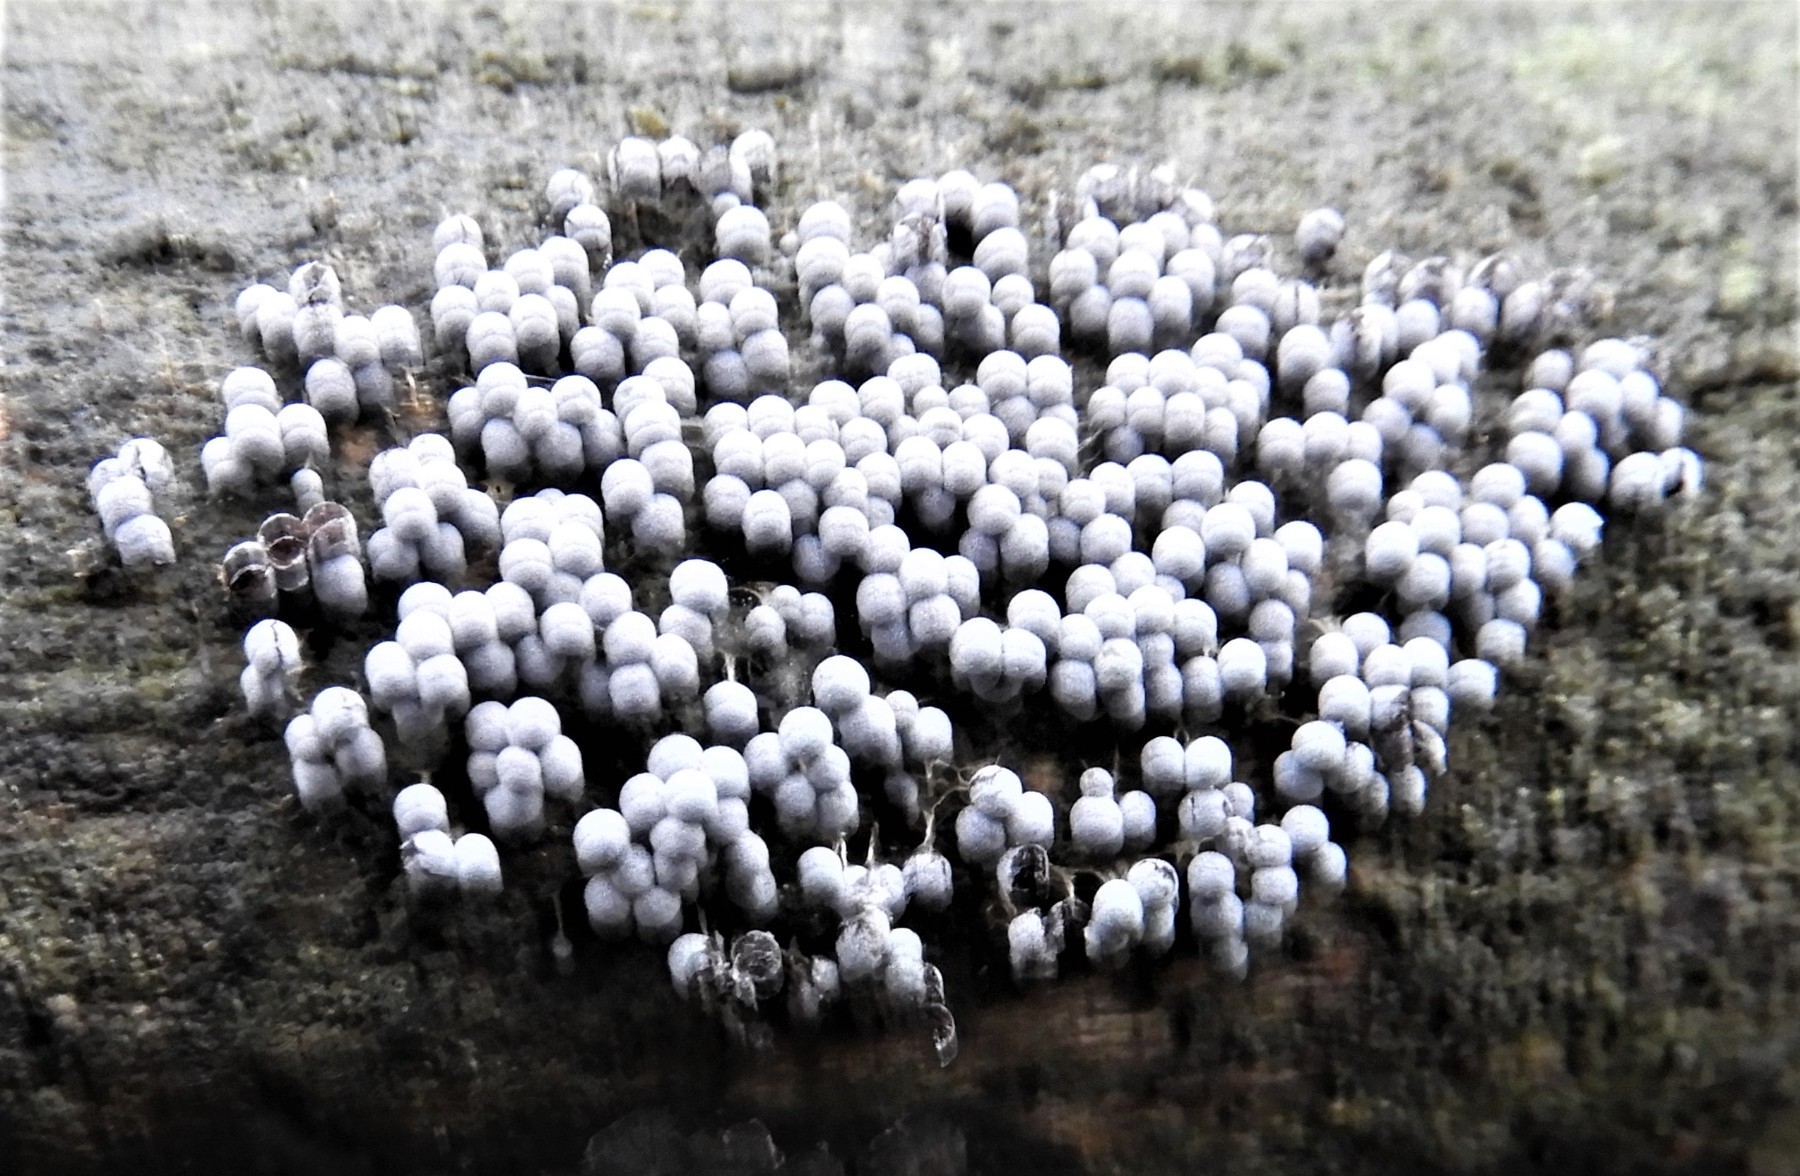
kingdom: Protozoa
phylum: Mycetozoa
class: Myxomycetes
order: Physarales
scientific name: Physarales
